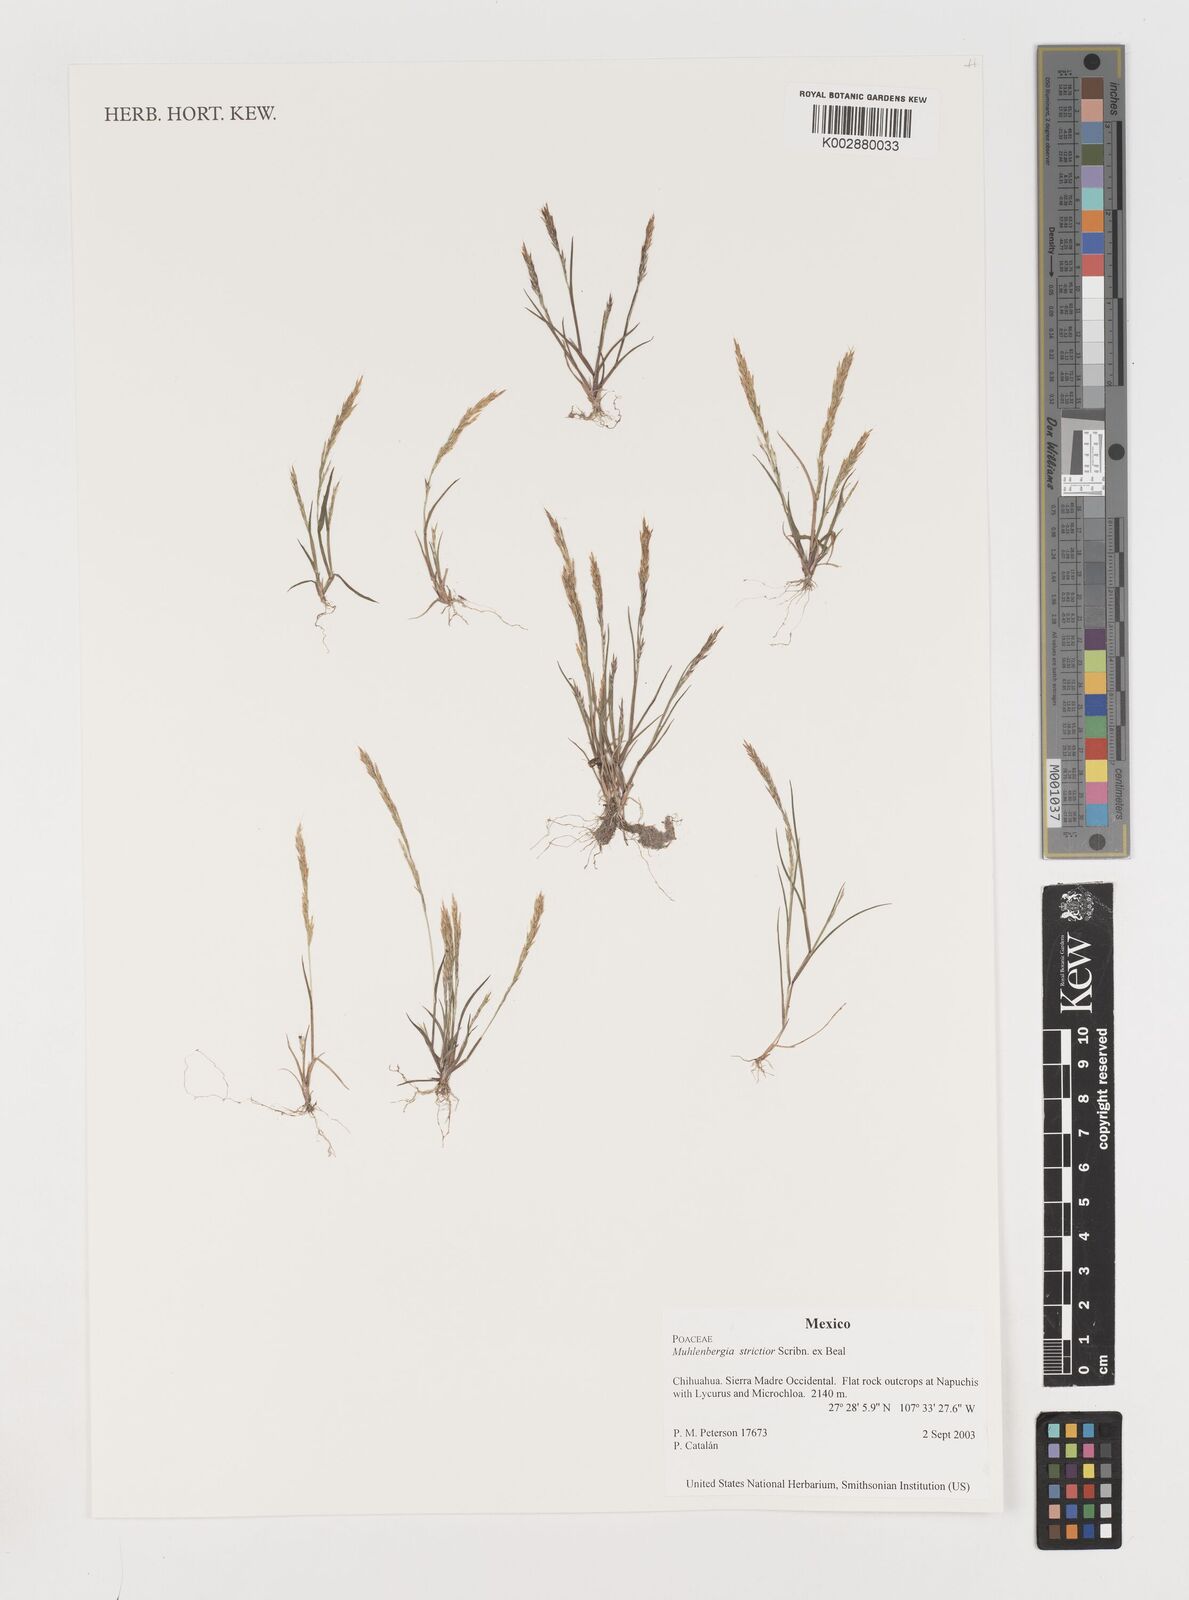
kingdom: Plantae
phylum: Tracheophyta
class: Liliopsida
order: Poales
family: Poaceae
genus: Muhlenbergia
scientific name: Muhlenbergia strictior
